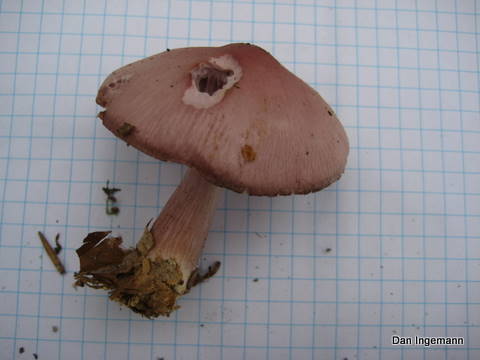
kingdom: Fungi
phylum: Basidiomycota
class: Agaricomycetes
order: Agaricales
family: Mycenaceae
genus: Mycena
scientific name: Mycena rosea
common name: rosa huesvamp
